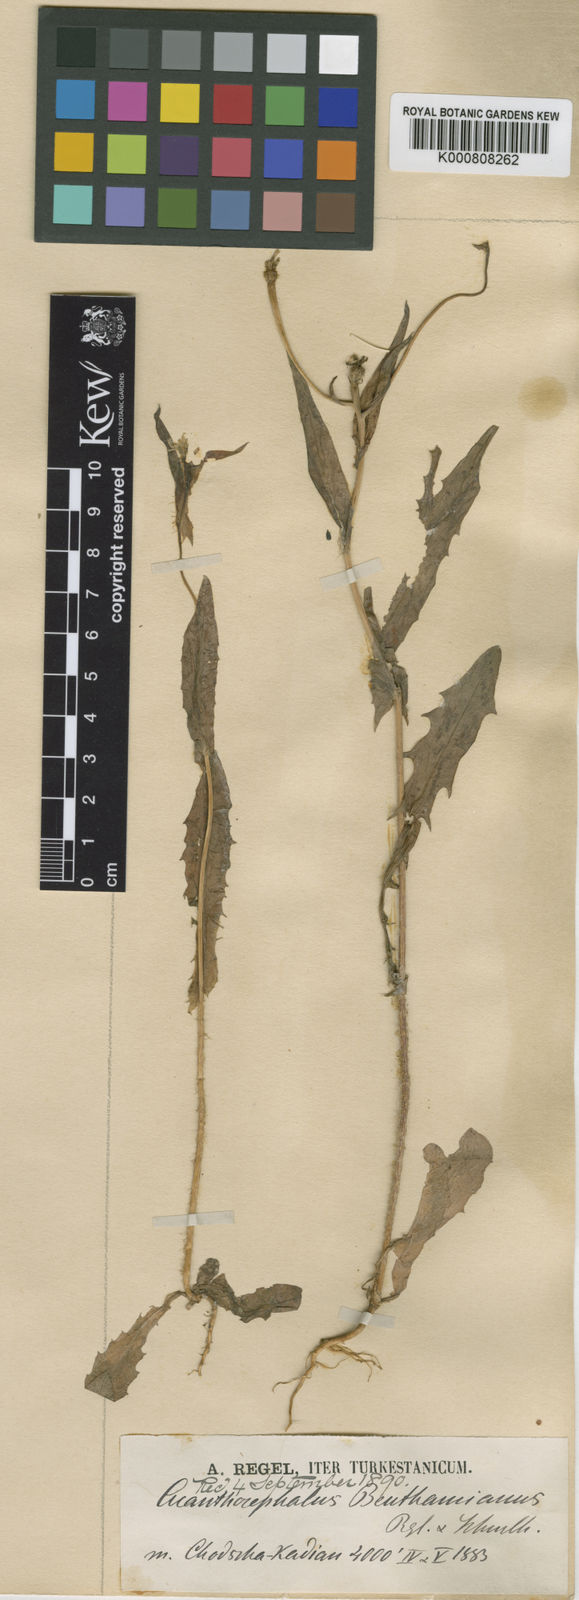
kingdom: Plantae
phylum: Tracheophyta
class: Magnoliopsida
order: Asterales
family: Asteraceae
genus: Acanthocephalus
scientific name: Acanthocephalus benthamianus
